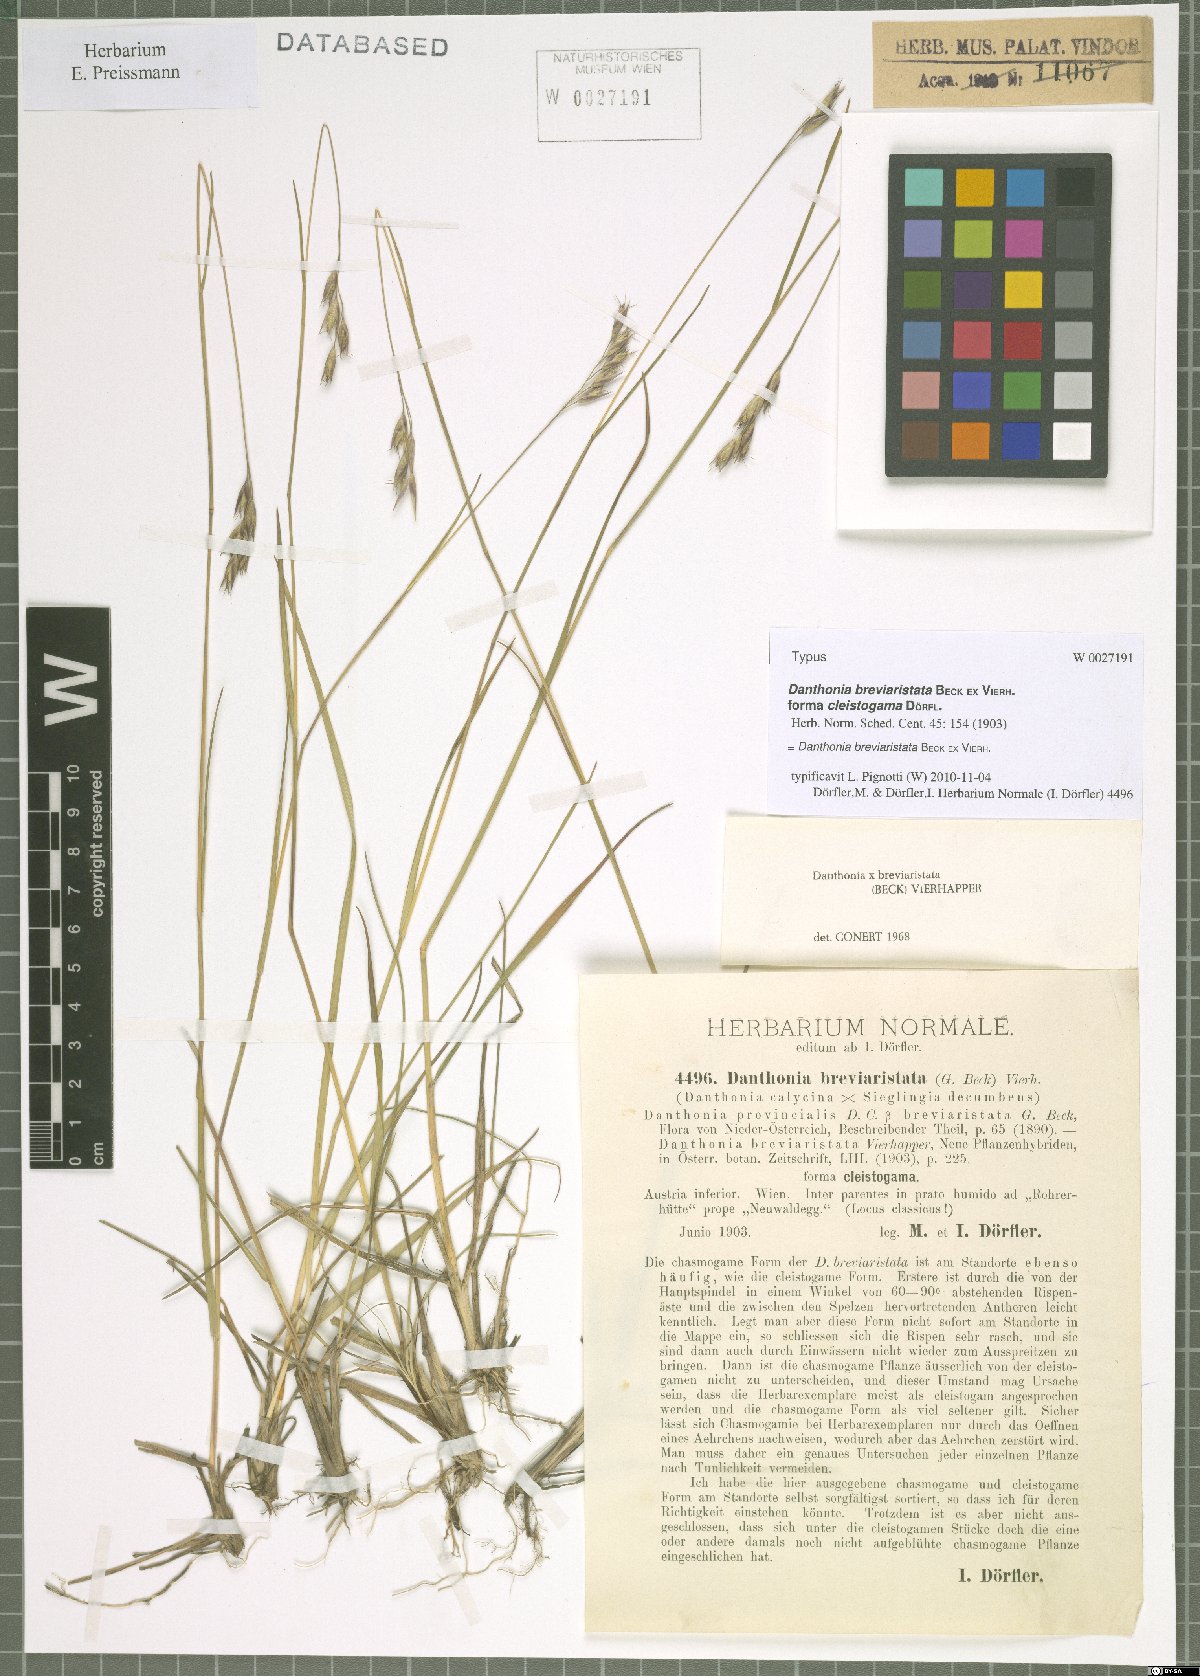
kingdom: Plantae
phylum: Tracheophyta
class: Liliopsida
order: Poales
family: Poaceae
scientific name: Poaceae
